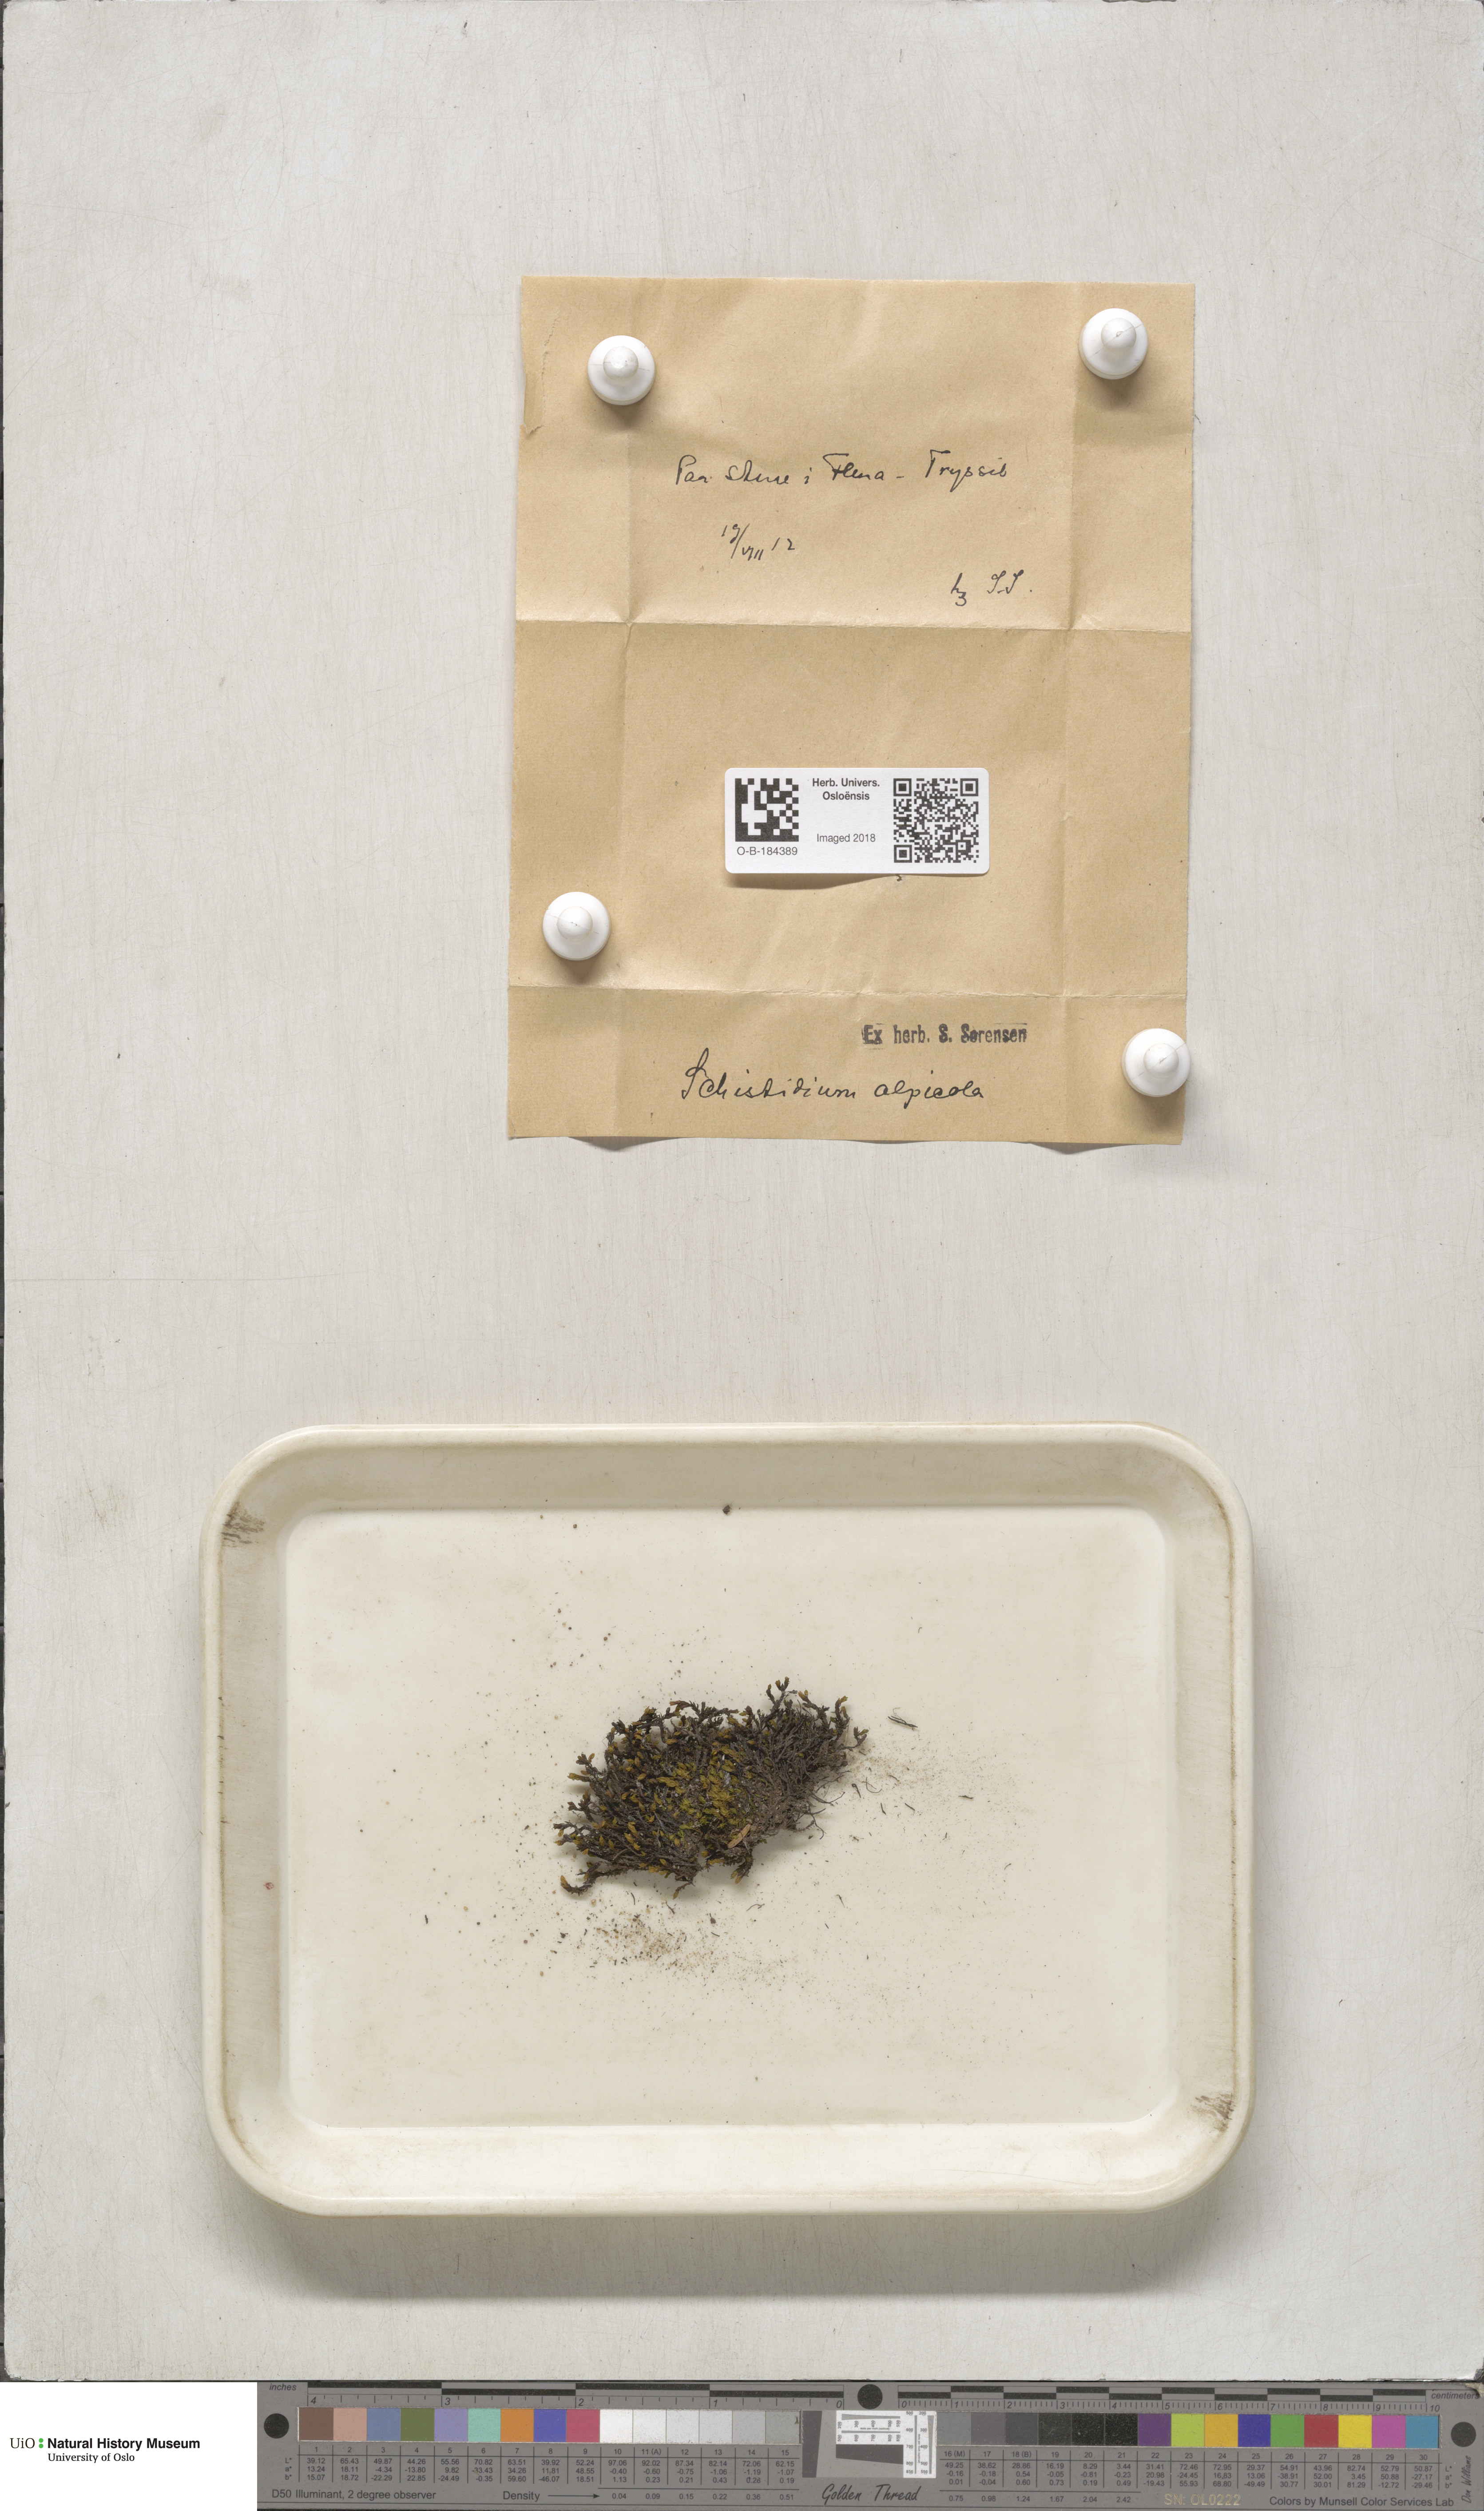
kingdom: Plantae
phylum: Bryophyta
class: Bryopsida
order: Grimmiales
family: Grimmiaceae
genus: Schistidium
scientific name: Schistidium rivulare
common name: River bloom moss
